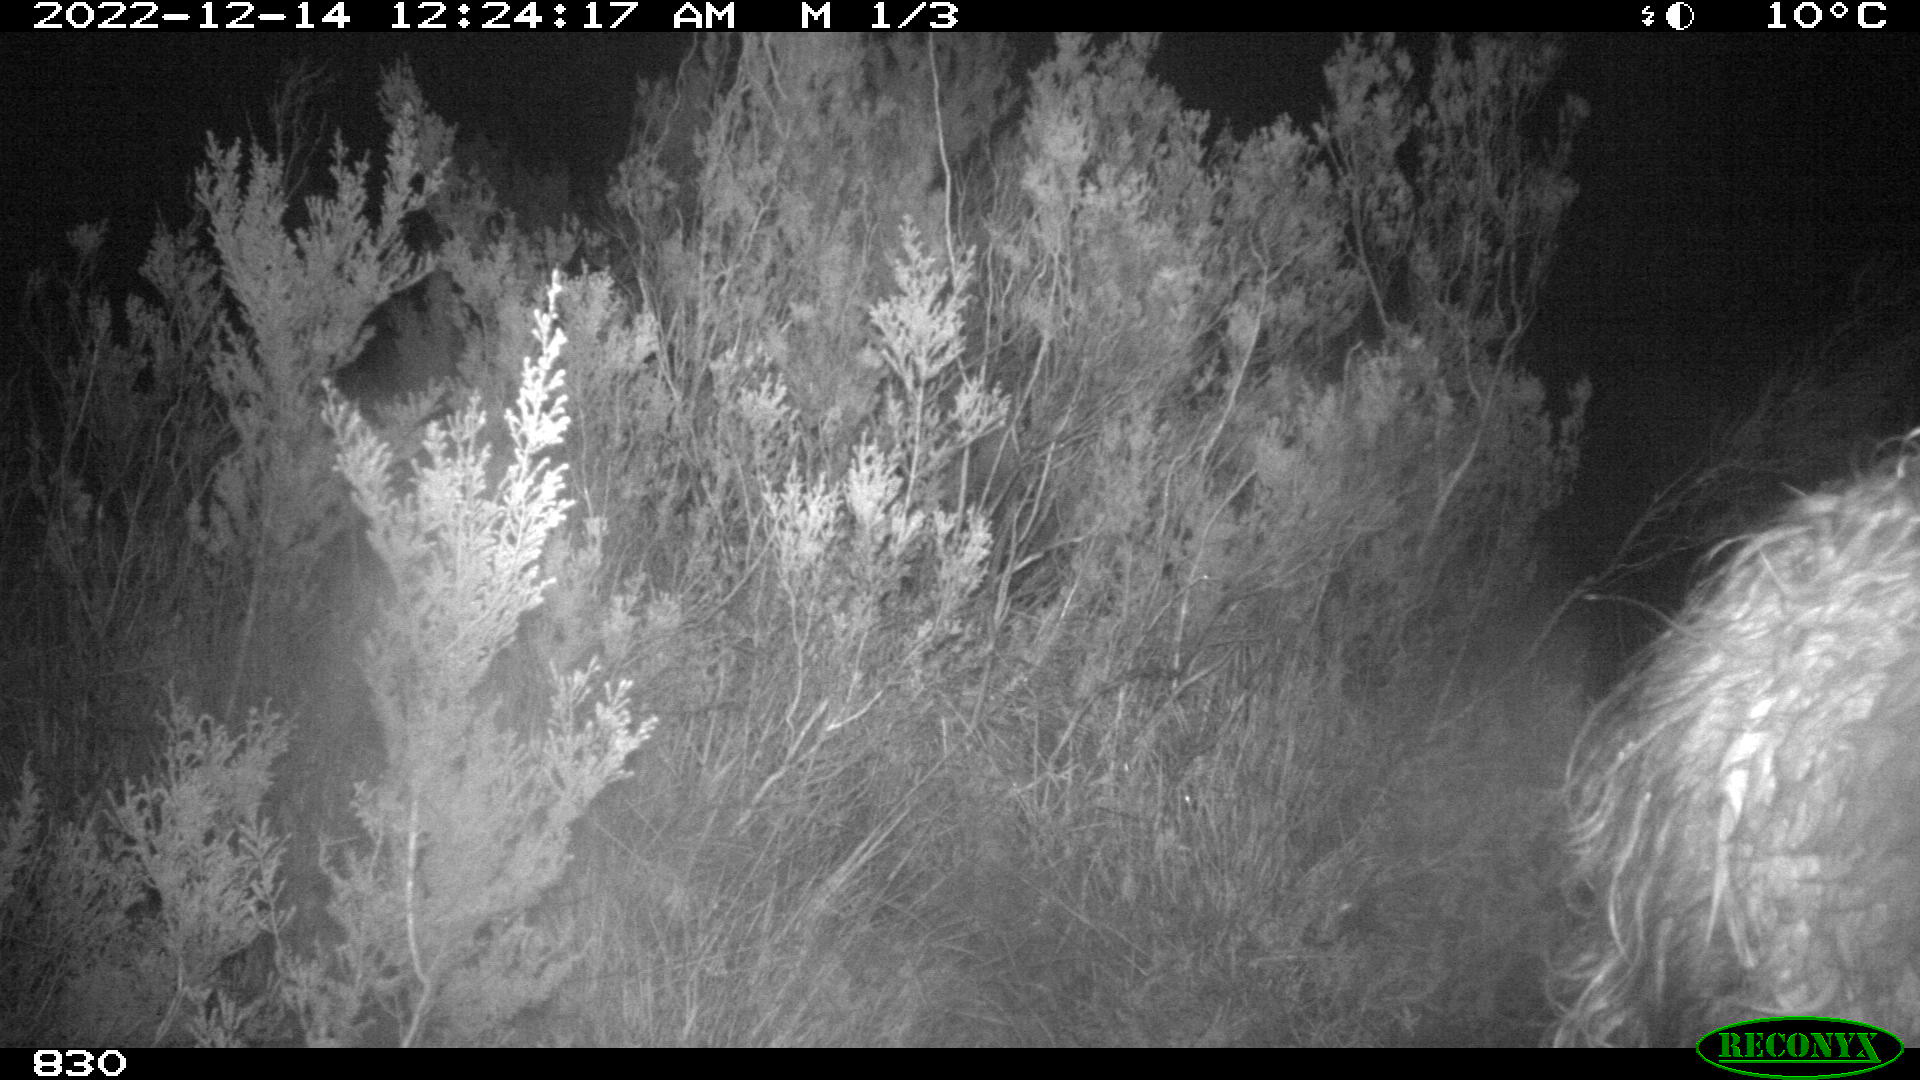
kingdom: Animalia
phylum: Chordata
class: Mammalia
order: Perissodactyla
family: Equidae
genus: Equus
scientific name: Equus caballus
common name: Horse
